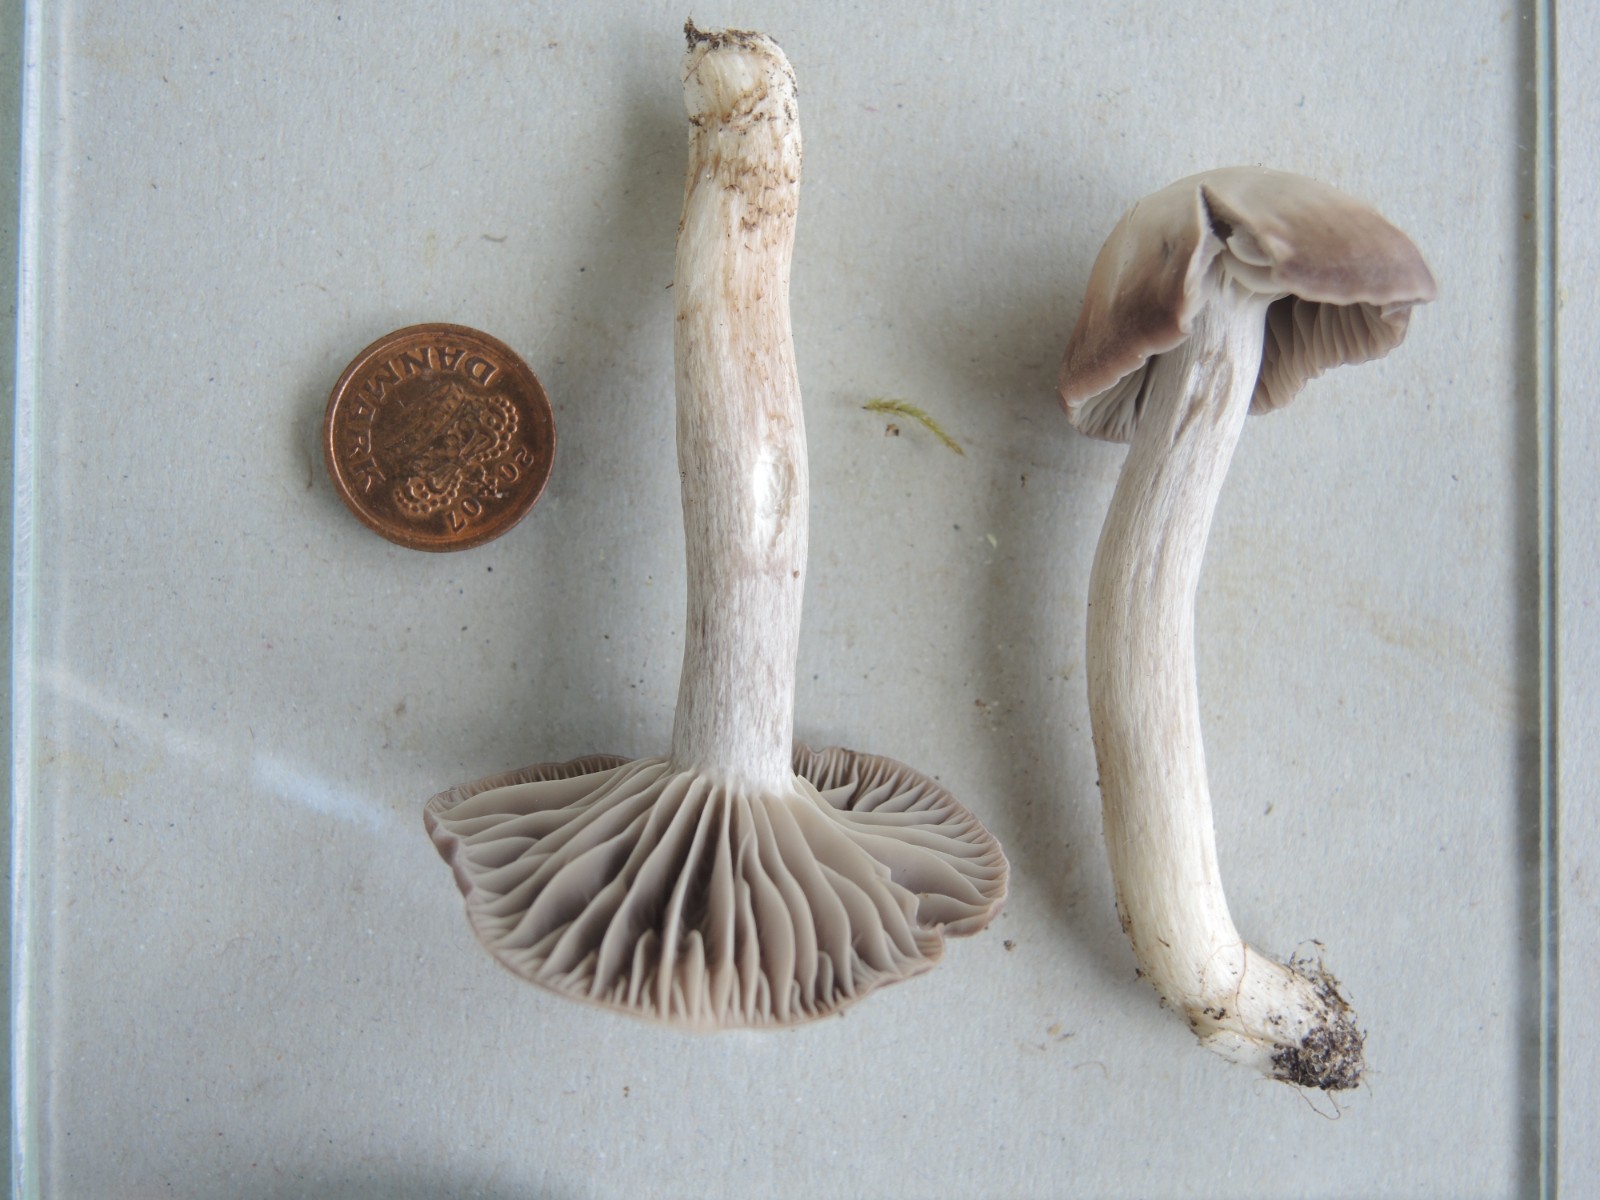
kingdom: Fungi
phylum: Basidiomycota
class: Agaricomycetes
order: Agaricales
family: Hygrophoraceae
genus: Cuphophyllus
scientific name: Cuphophyllus flavipes
